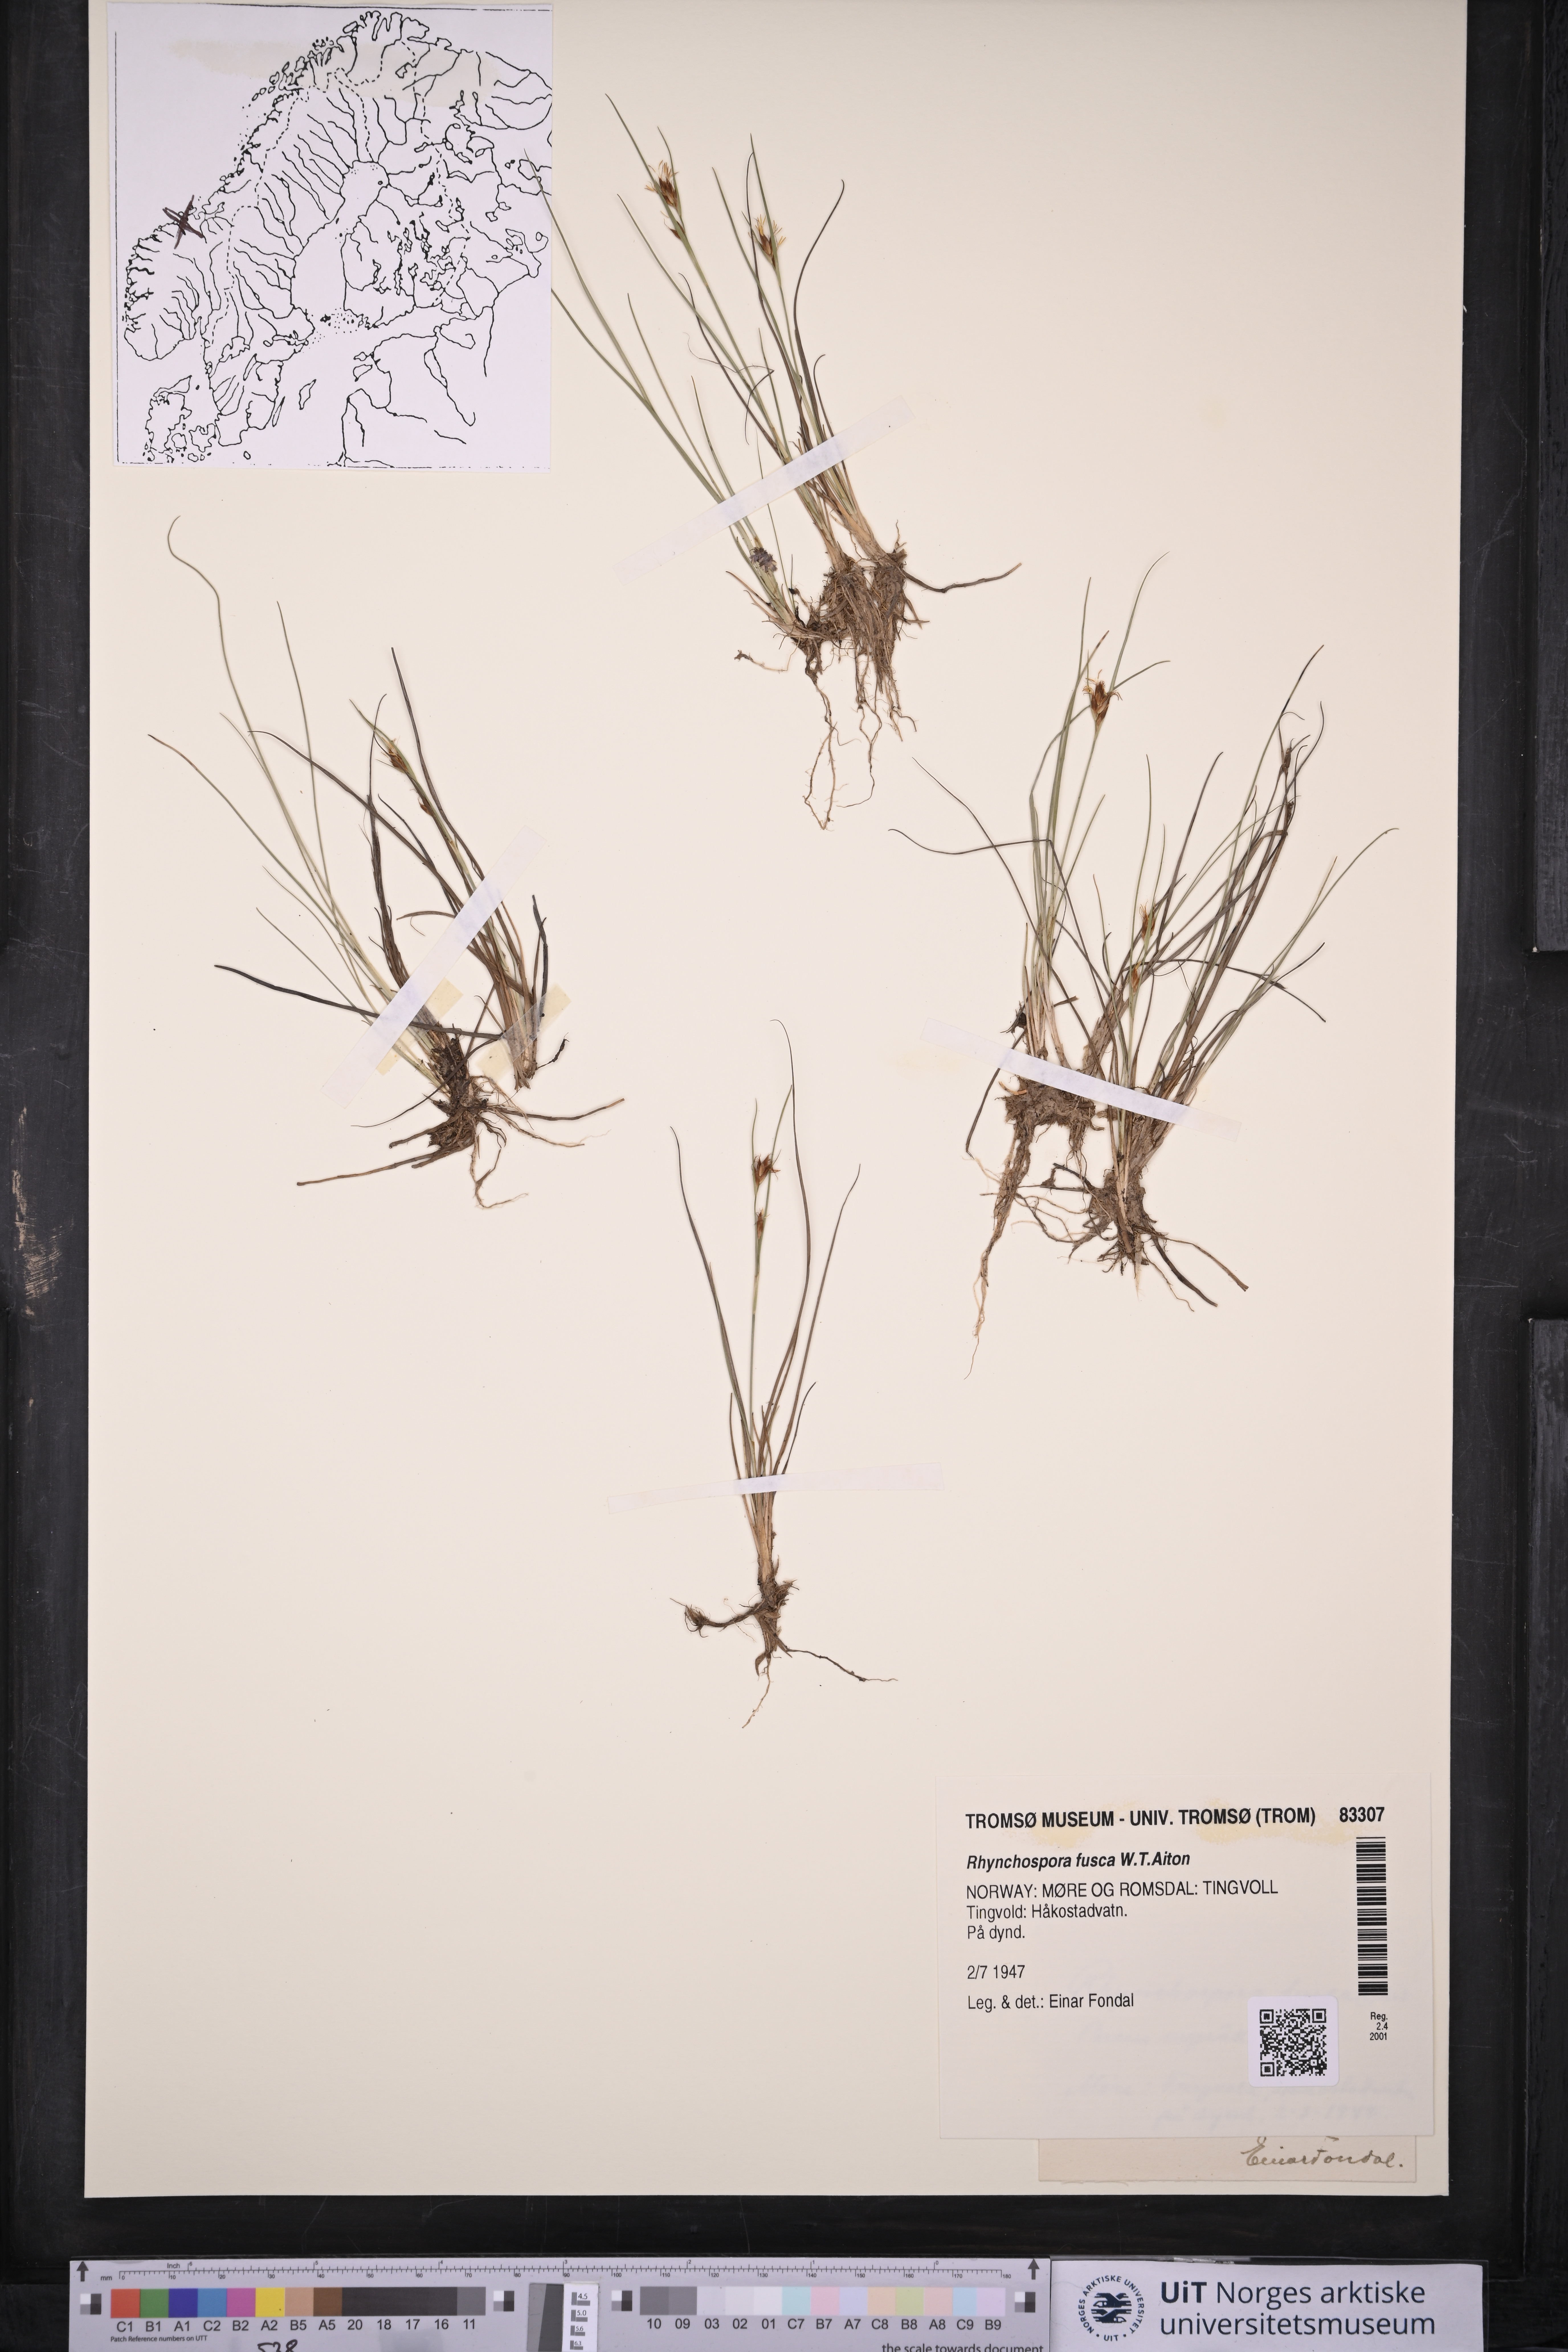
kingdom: Plantae
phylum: Tracheophyta
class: Liliopsida
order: Poales
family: Cyperaceae
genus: Rhynchospora
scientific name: Rhynchospora fusca
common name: Brown beak-sedge
